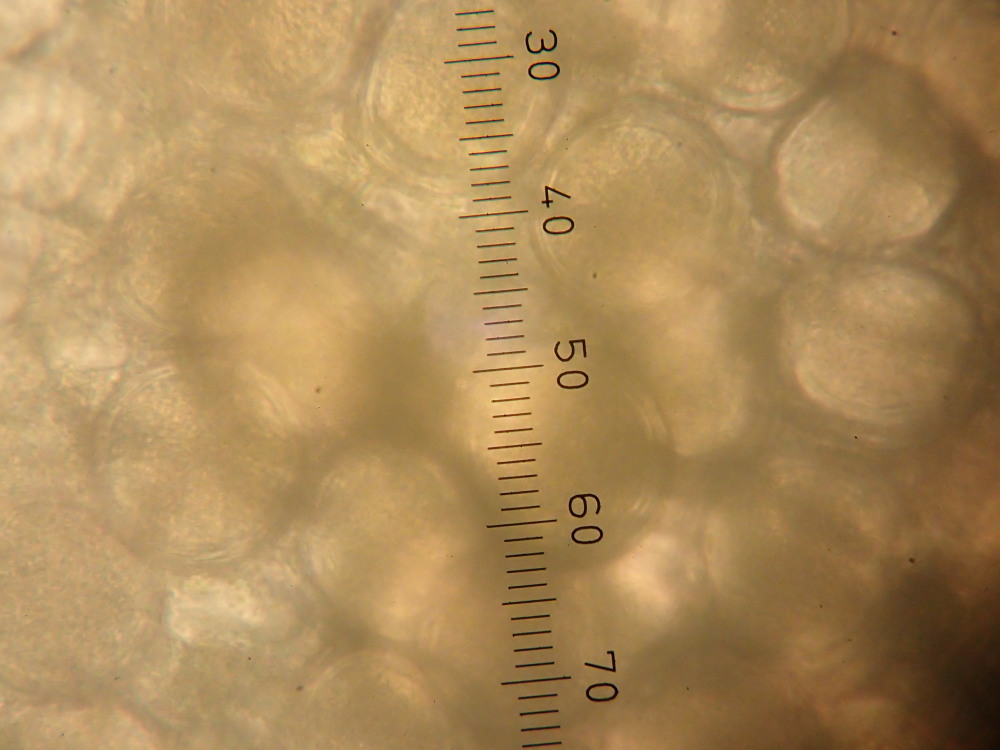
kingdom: Fungi
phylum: Ascomycota
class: Taphrinomycetes
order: Taphrinales
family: Taphrinaceae
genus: Protomyces
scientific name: Protomyces macrosporus
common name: skvalderkål-vablesæk
